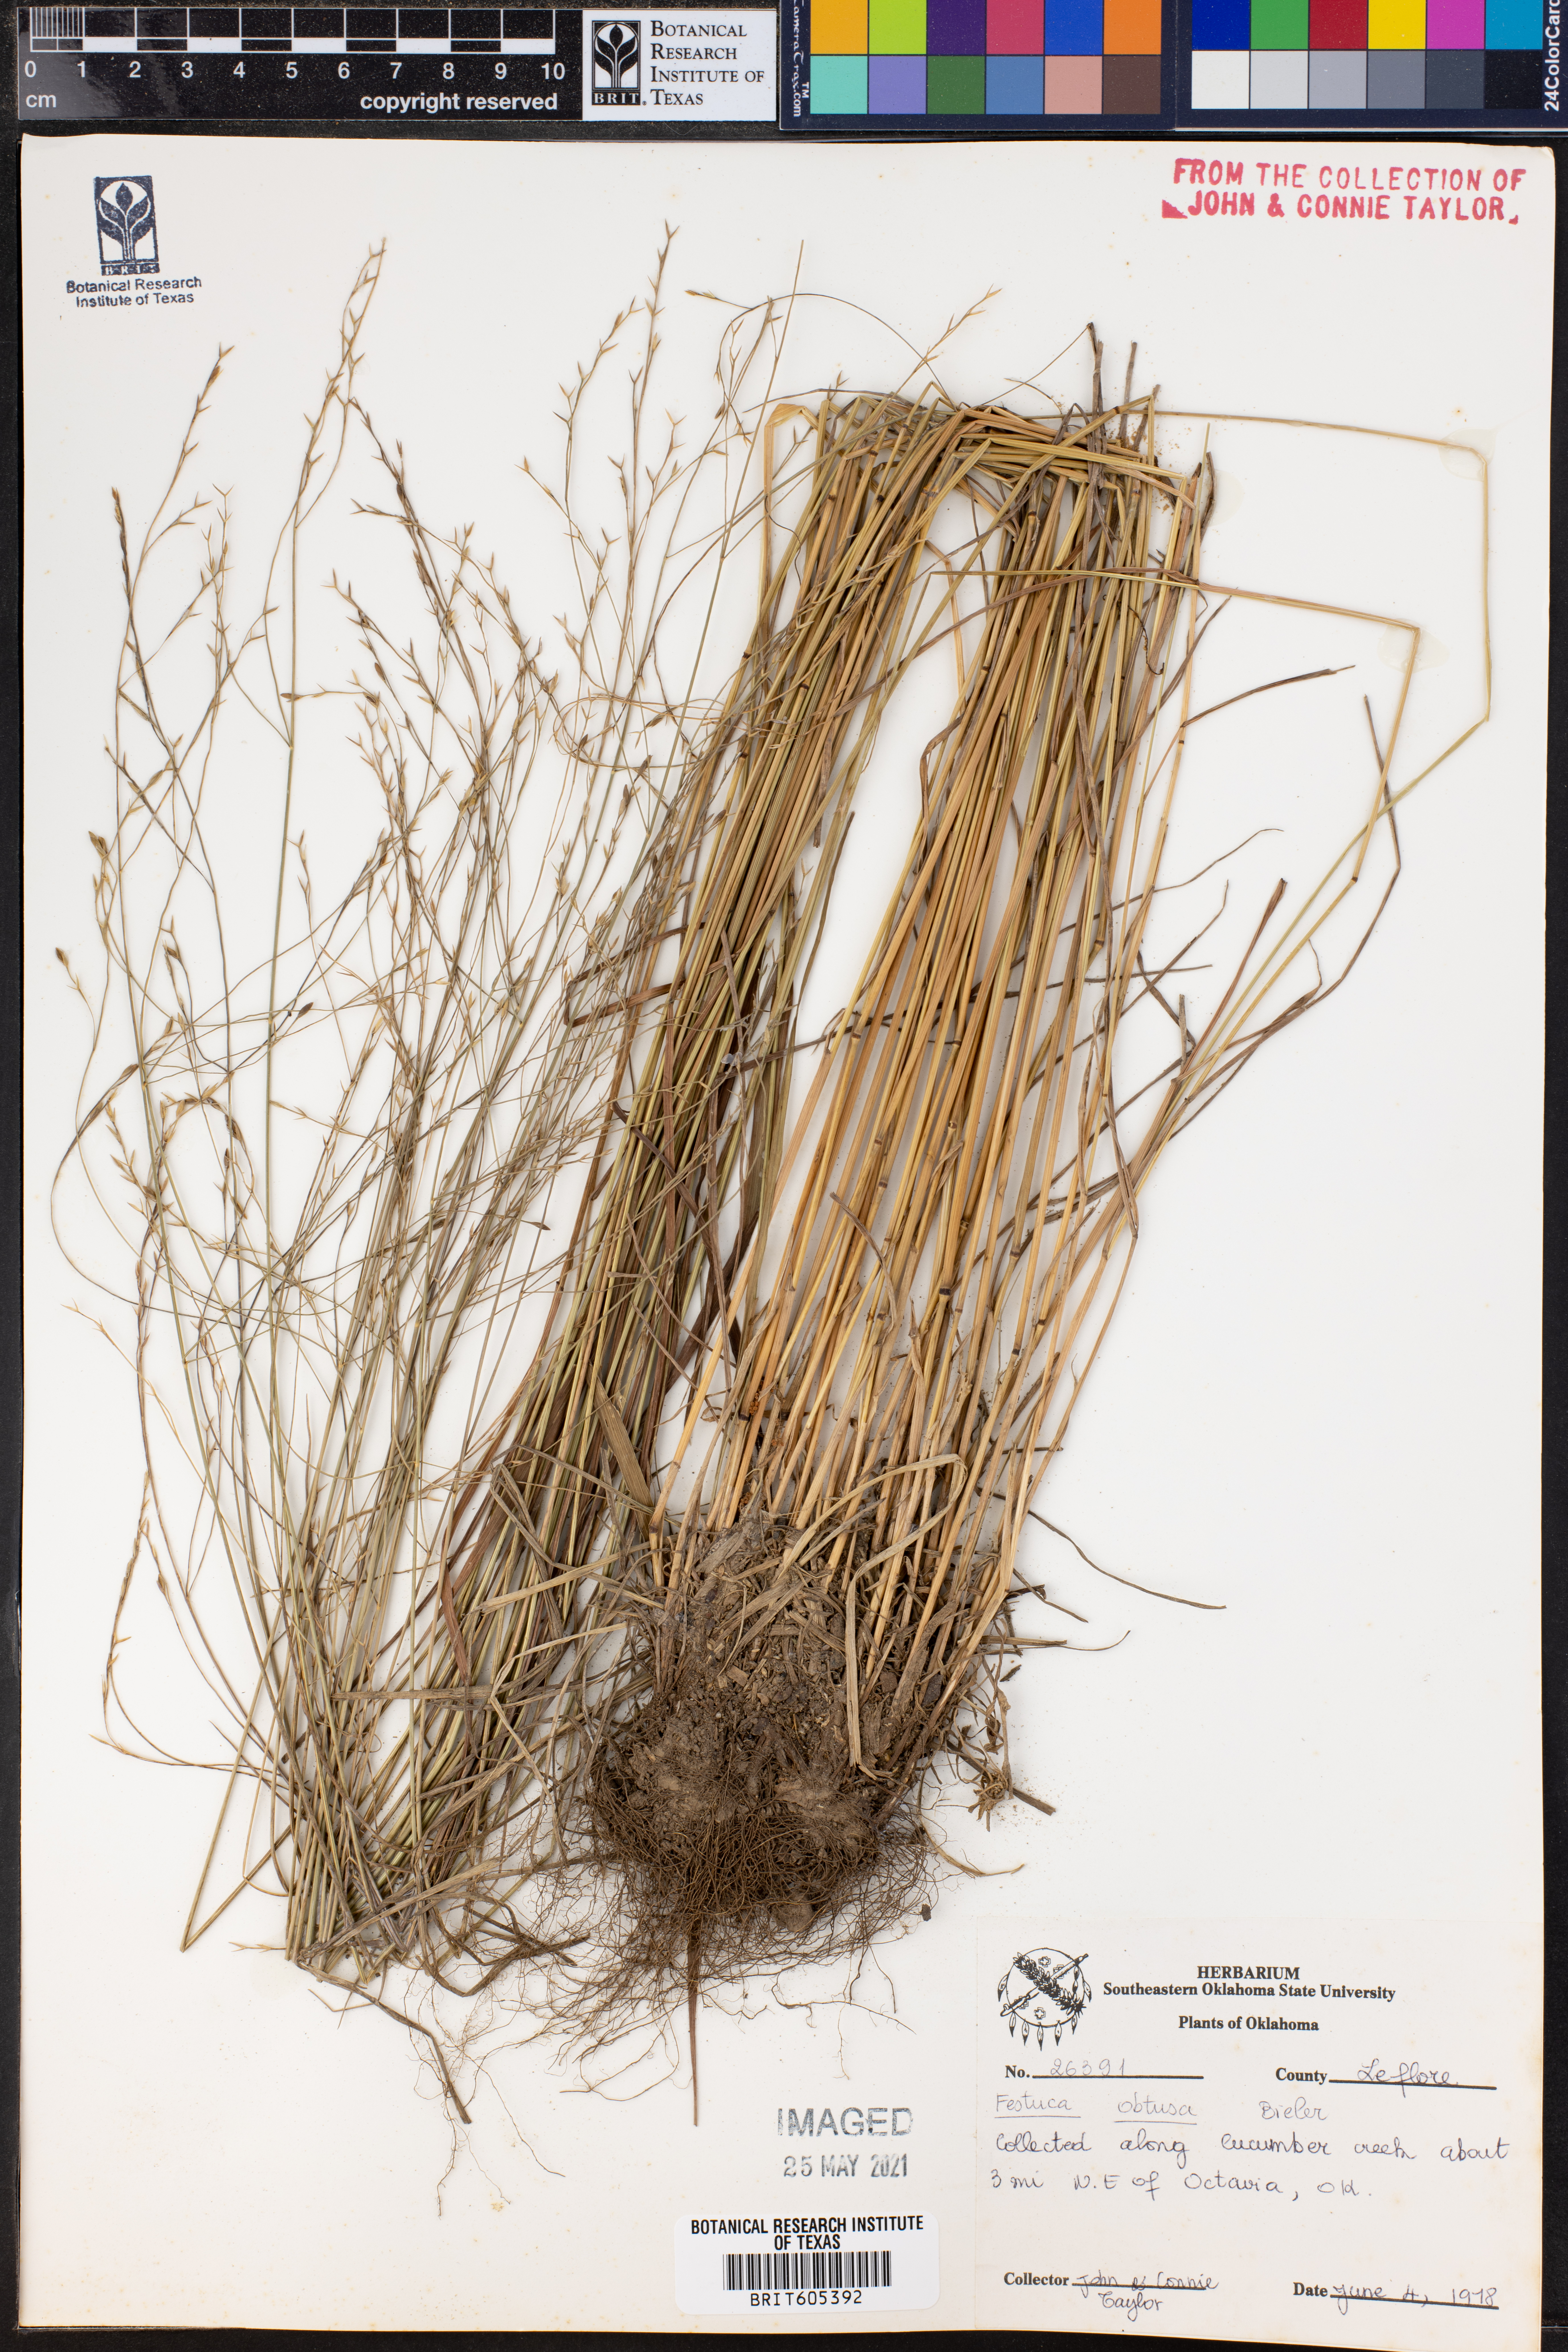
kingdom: Plantae
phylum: Tracheophyta
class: Liliopsida
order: Poales
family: Poaceae
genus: Festuca
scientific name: Festuca subverticillata
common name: Nodding fescue
